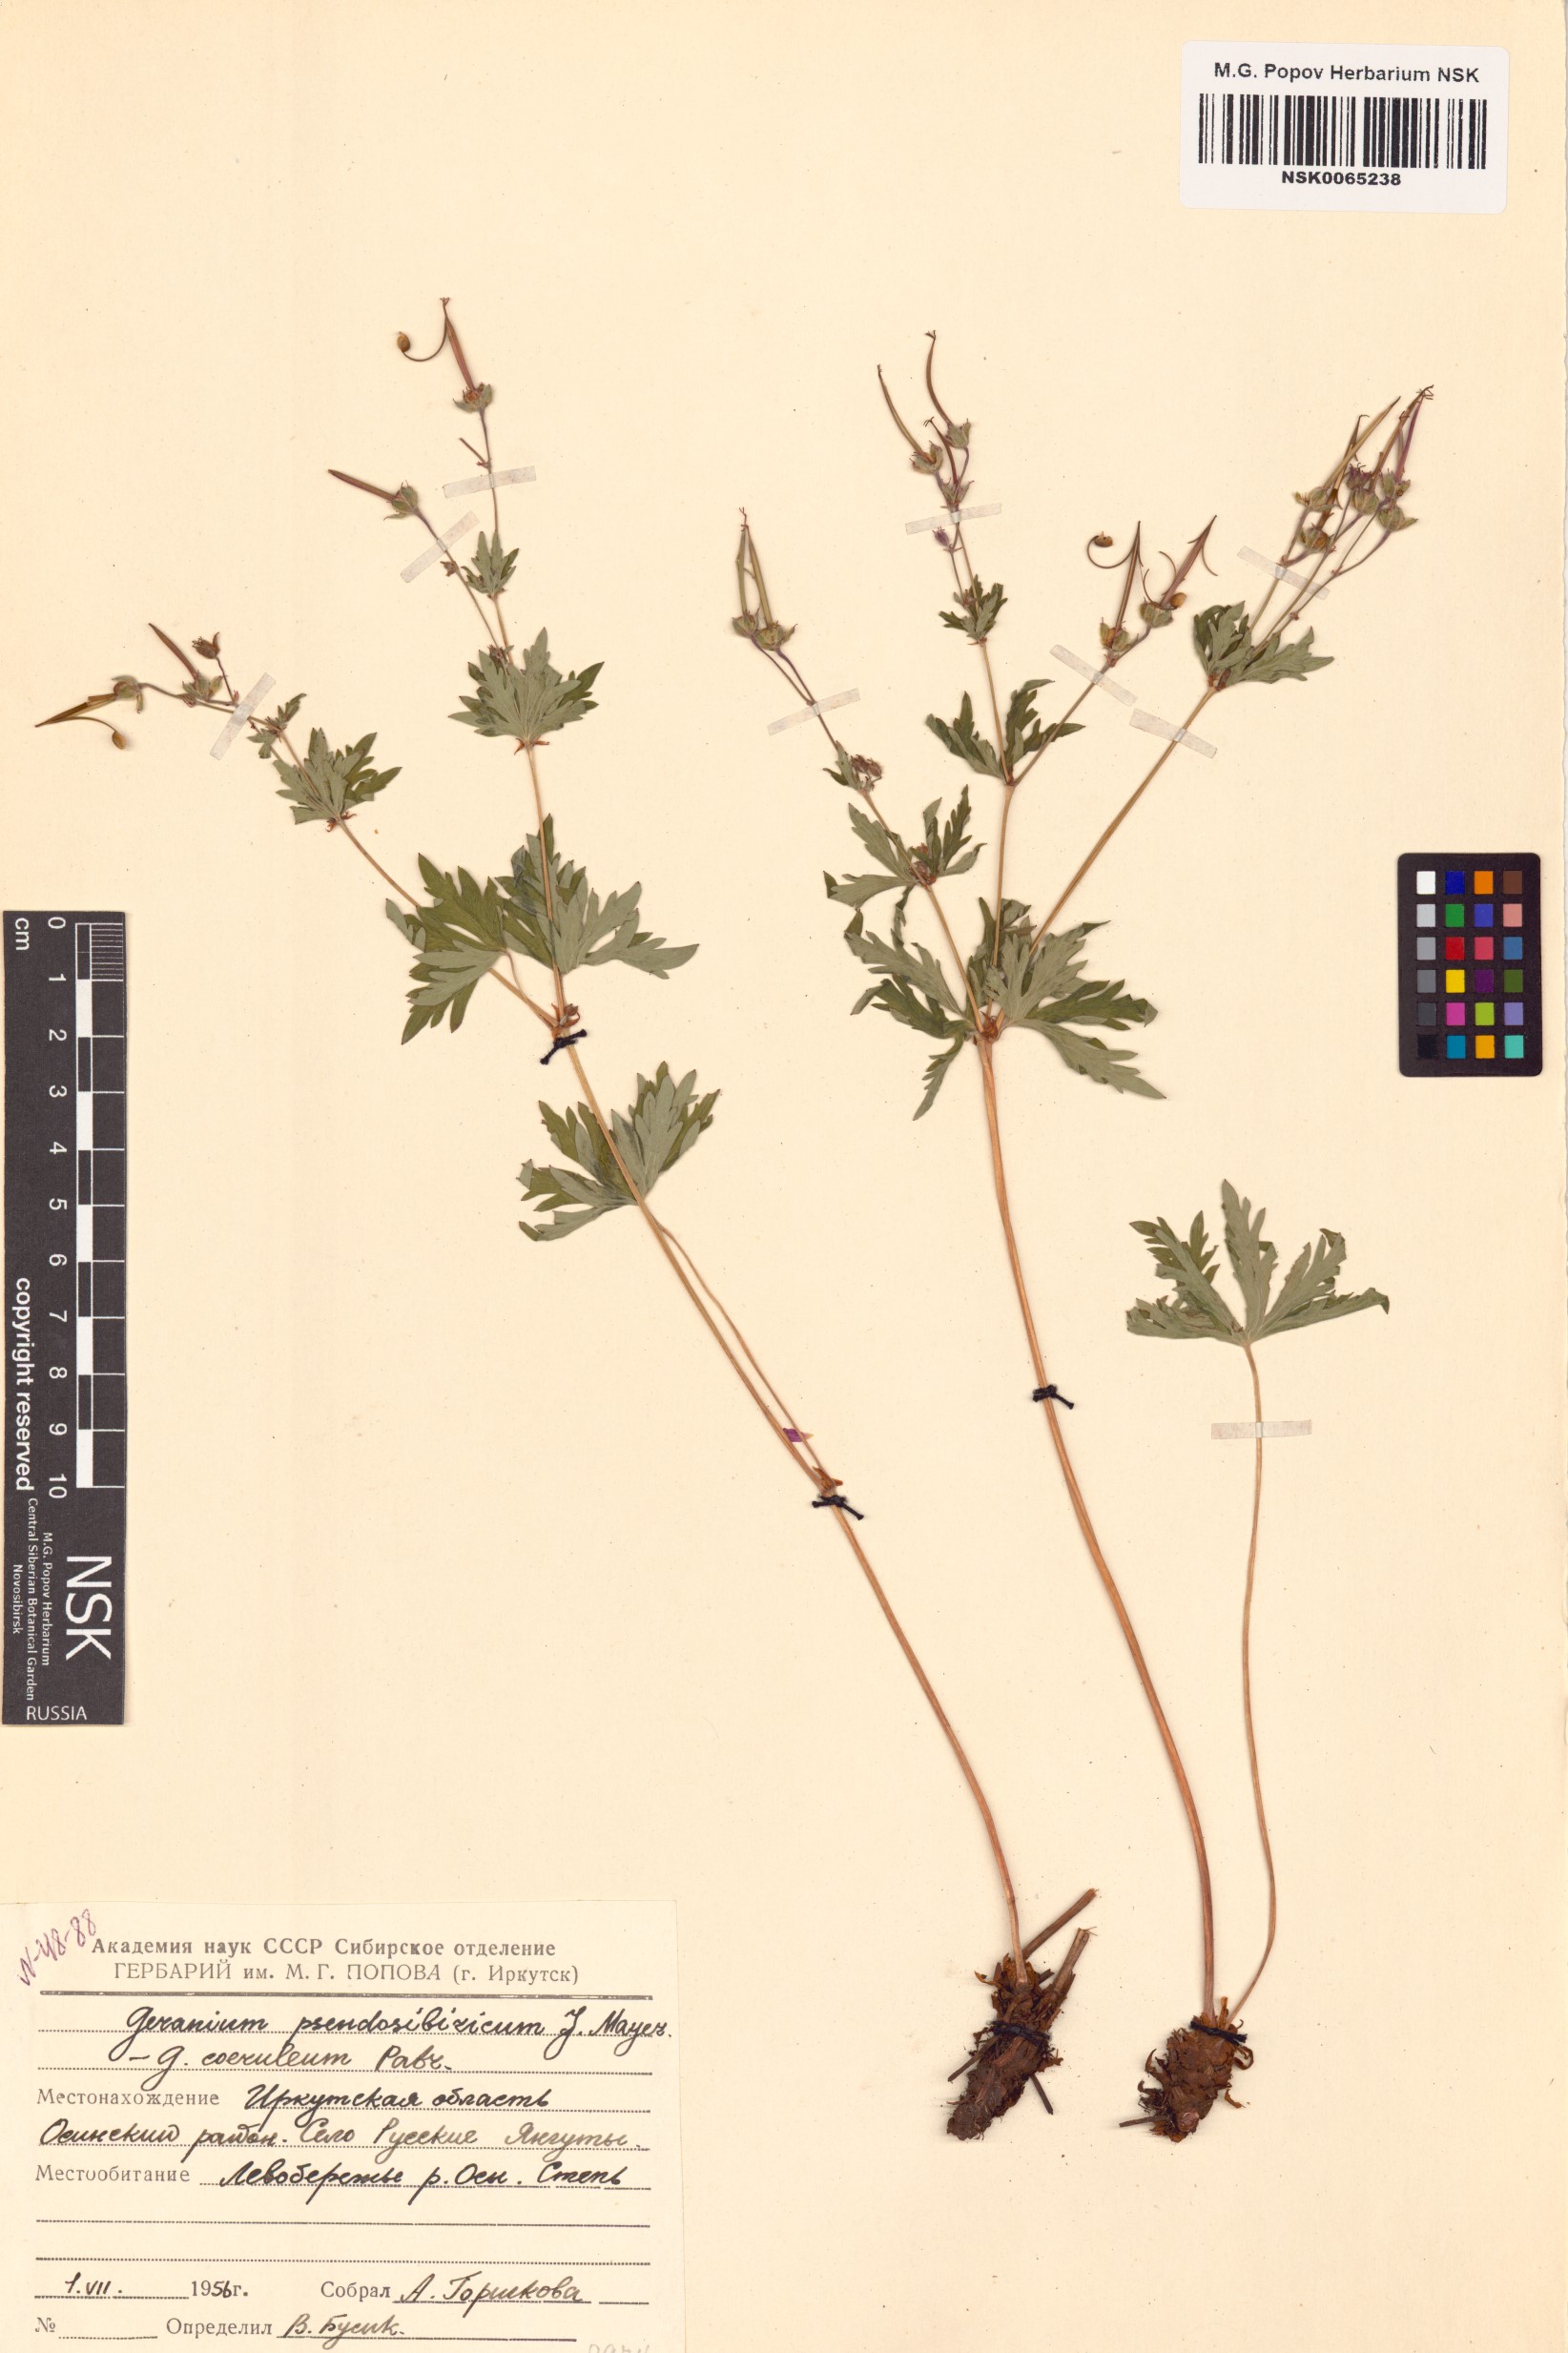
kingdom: Plantae
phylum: Tracheophyta
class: Magnoliopsida
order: Geraniales
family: Geraniaceae
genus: Geranium
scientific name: Geranium pseudosibiricum
